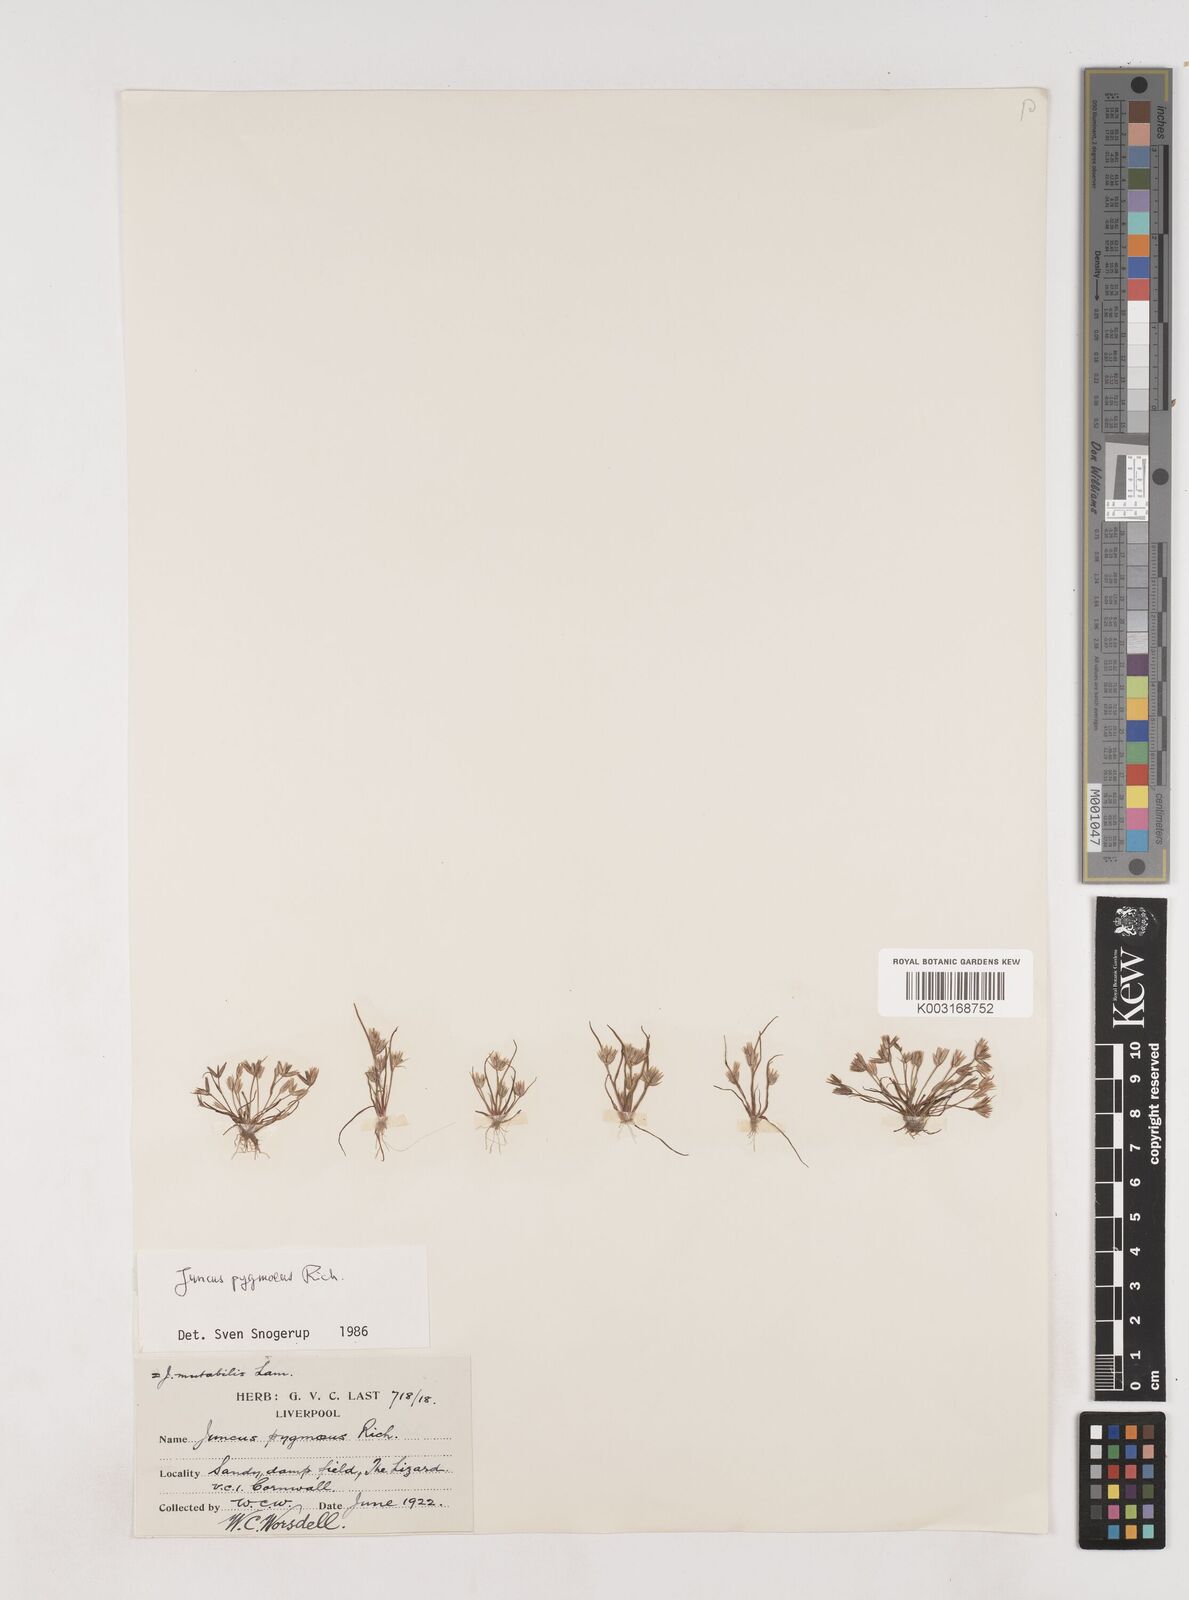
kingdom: Plantae
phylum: Tracheophyta
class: Liliopsida
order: Poales
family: Juncaceae
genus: Juncus
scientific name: Juncus pygmaeus
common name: Pigmy rush
